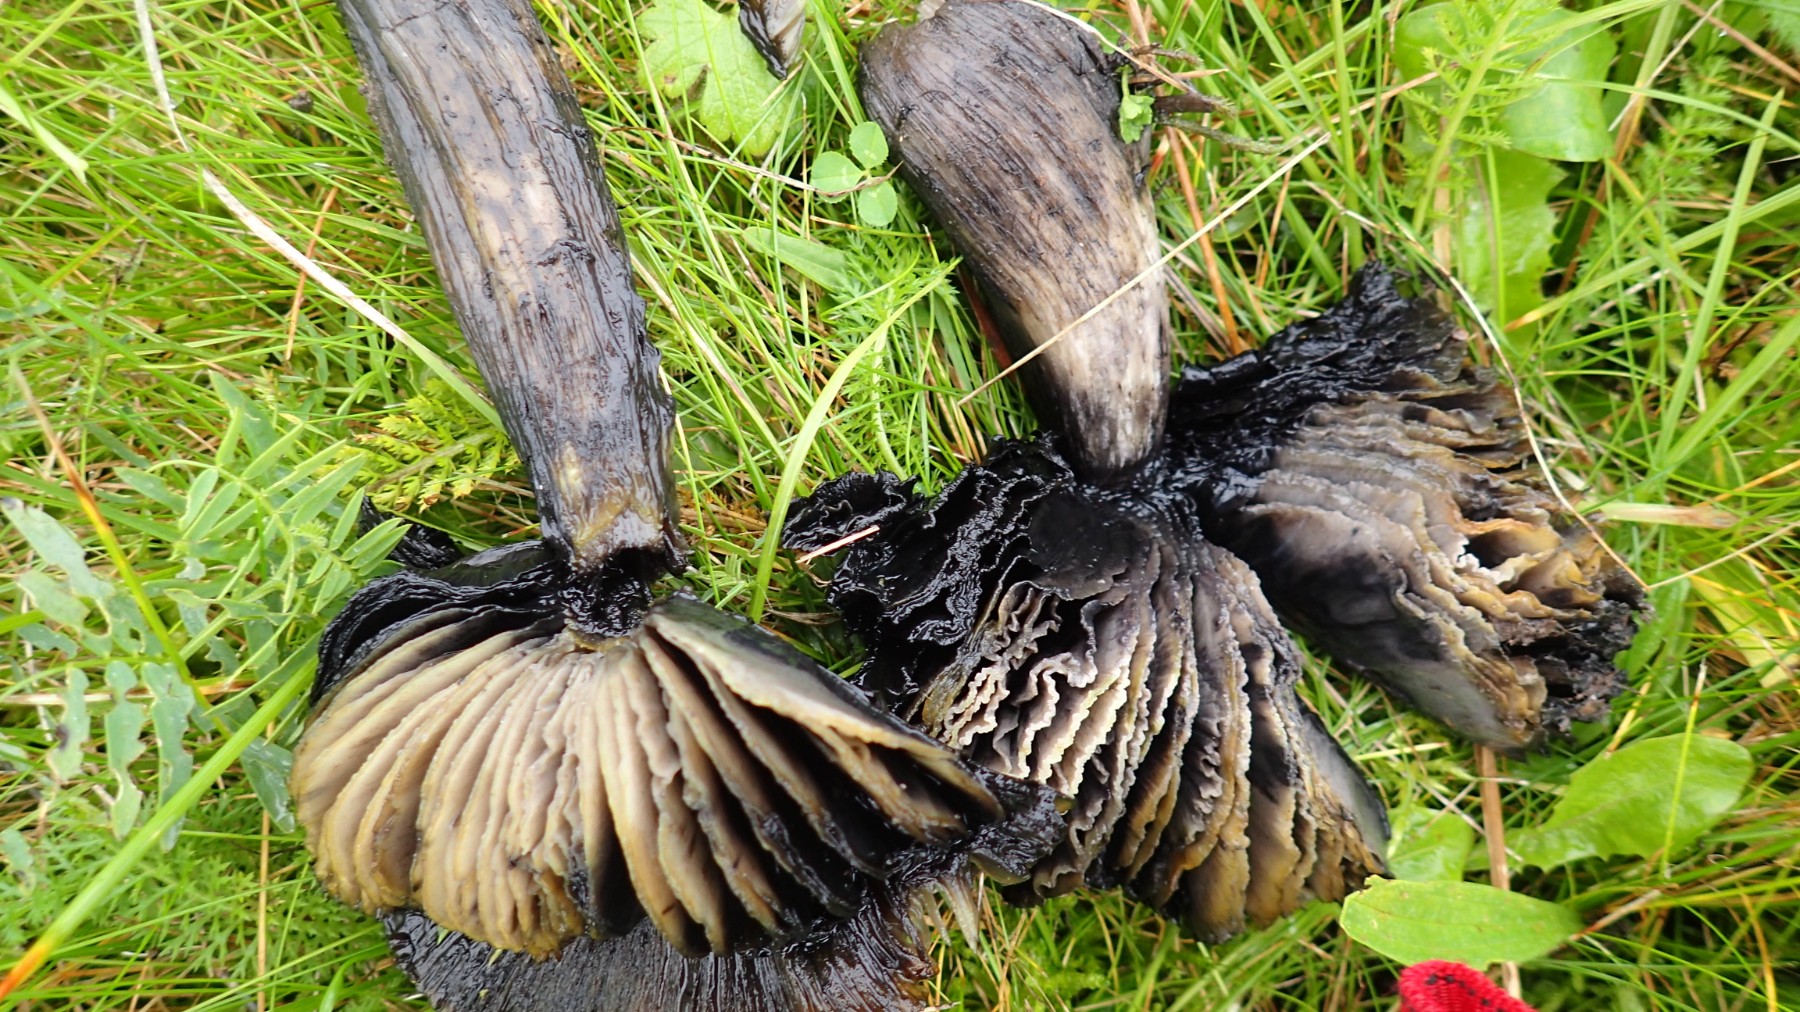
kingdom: Fungi
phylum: Basidiomycota
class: Agaricomycetes
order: Agaricales
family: Hygrophoraceae
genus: Hygrocybe
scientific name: Hygrocybe conica
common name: kegle-vokshat
